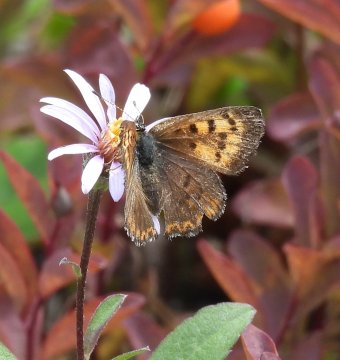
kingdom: Animalia
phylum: Arthropoda
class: Insecta
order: Lepidoptera
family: Lycaenidae
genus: Lycaena
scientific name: Lycaena mariposa
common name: Mariposa Copper
